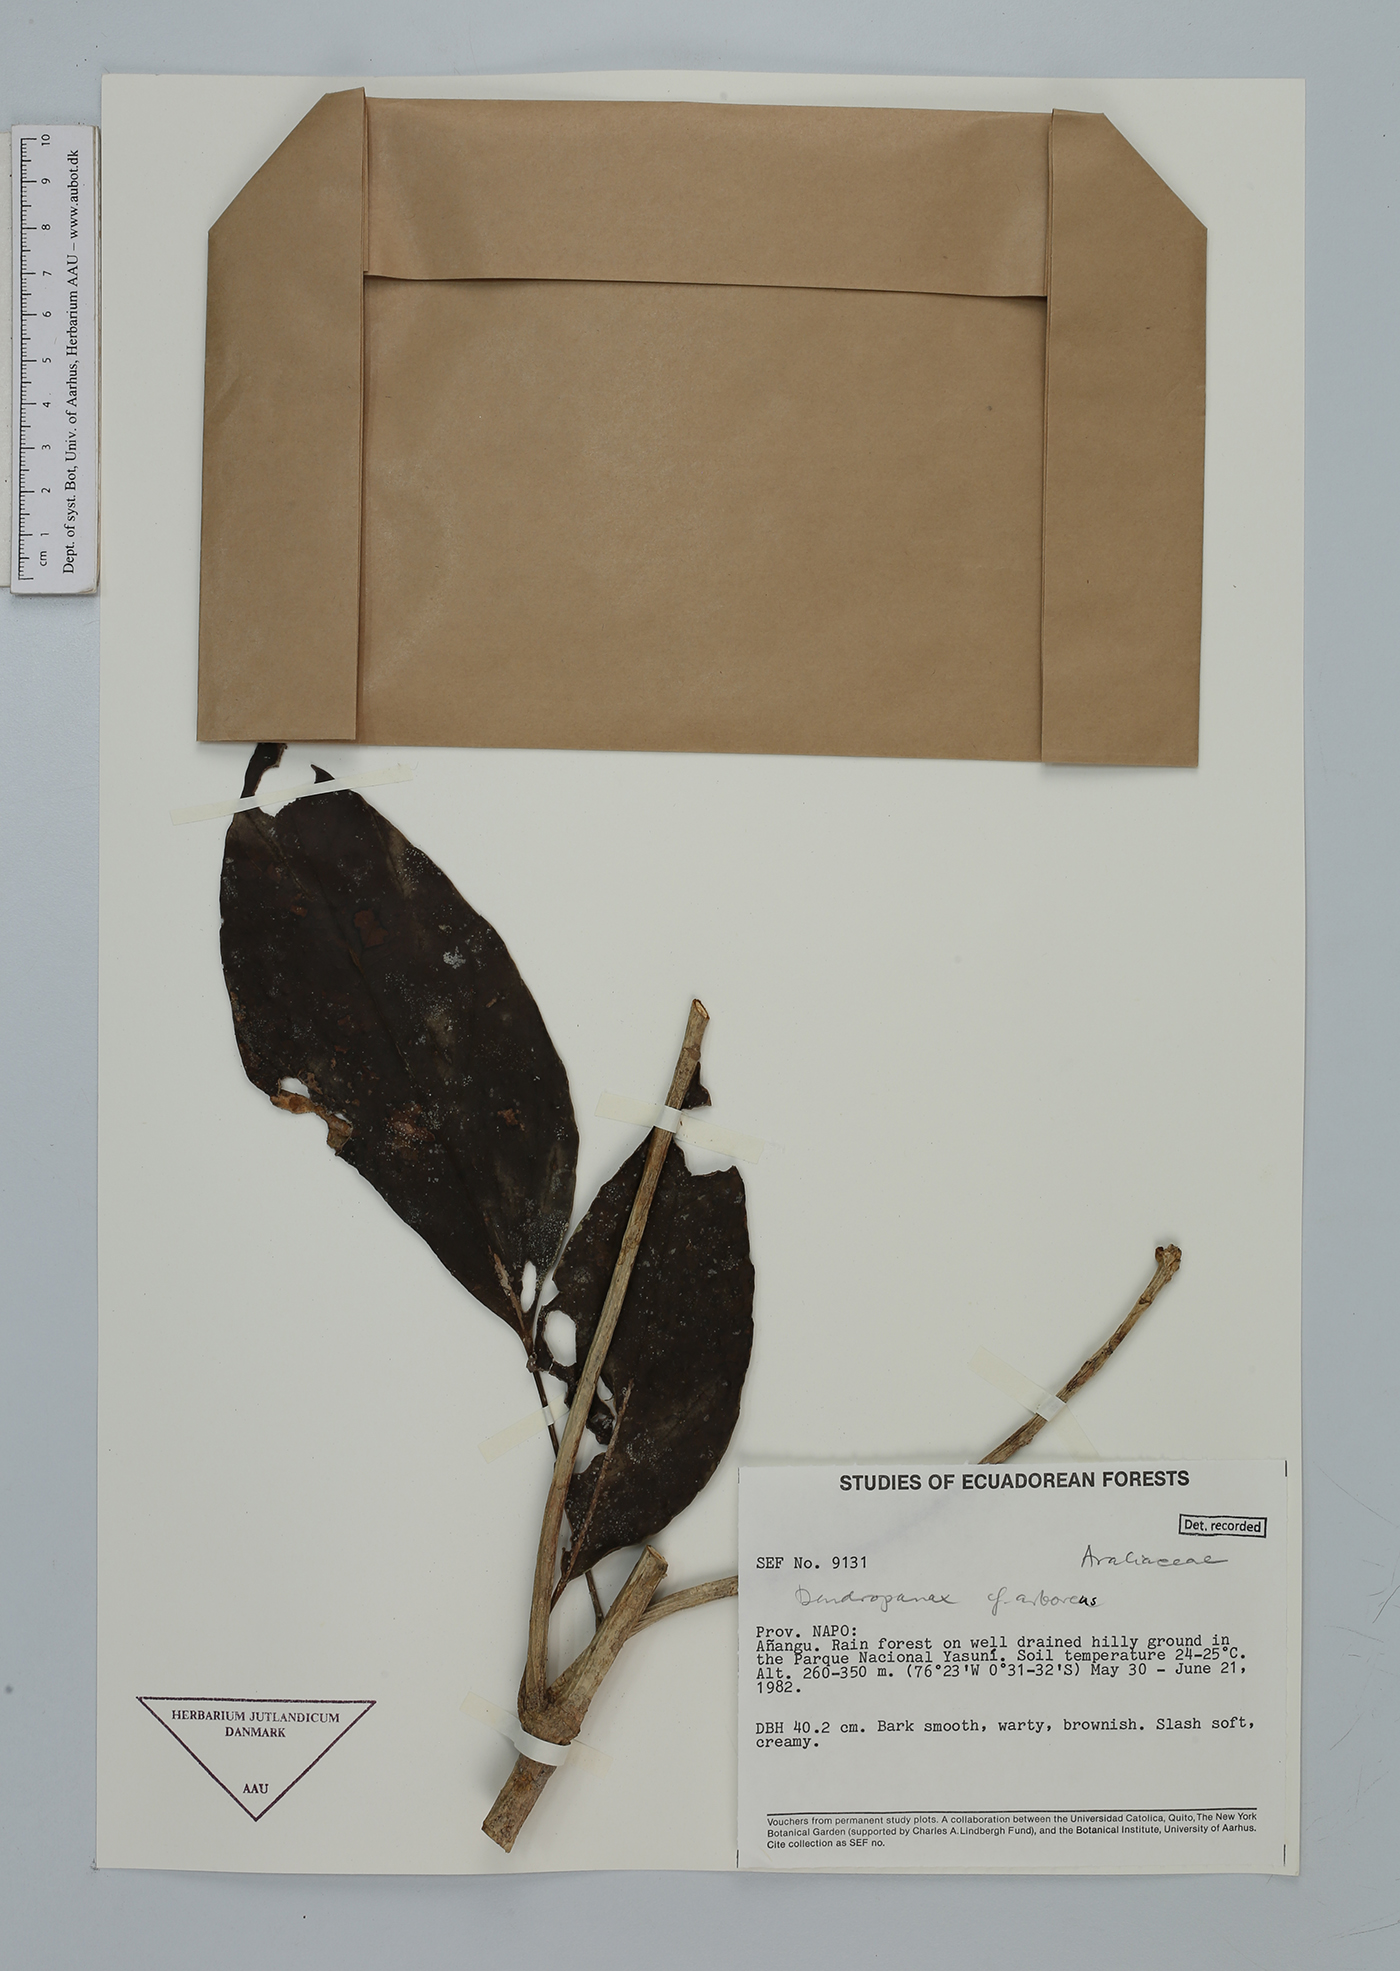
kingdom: Plantae
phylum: Tracheophyta
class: Magnoliopsida
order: Apiales
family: Araliaceae
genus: Dendropanax
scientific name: Dendropanax arboreus
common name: Potato-wood
